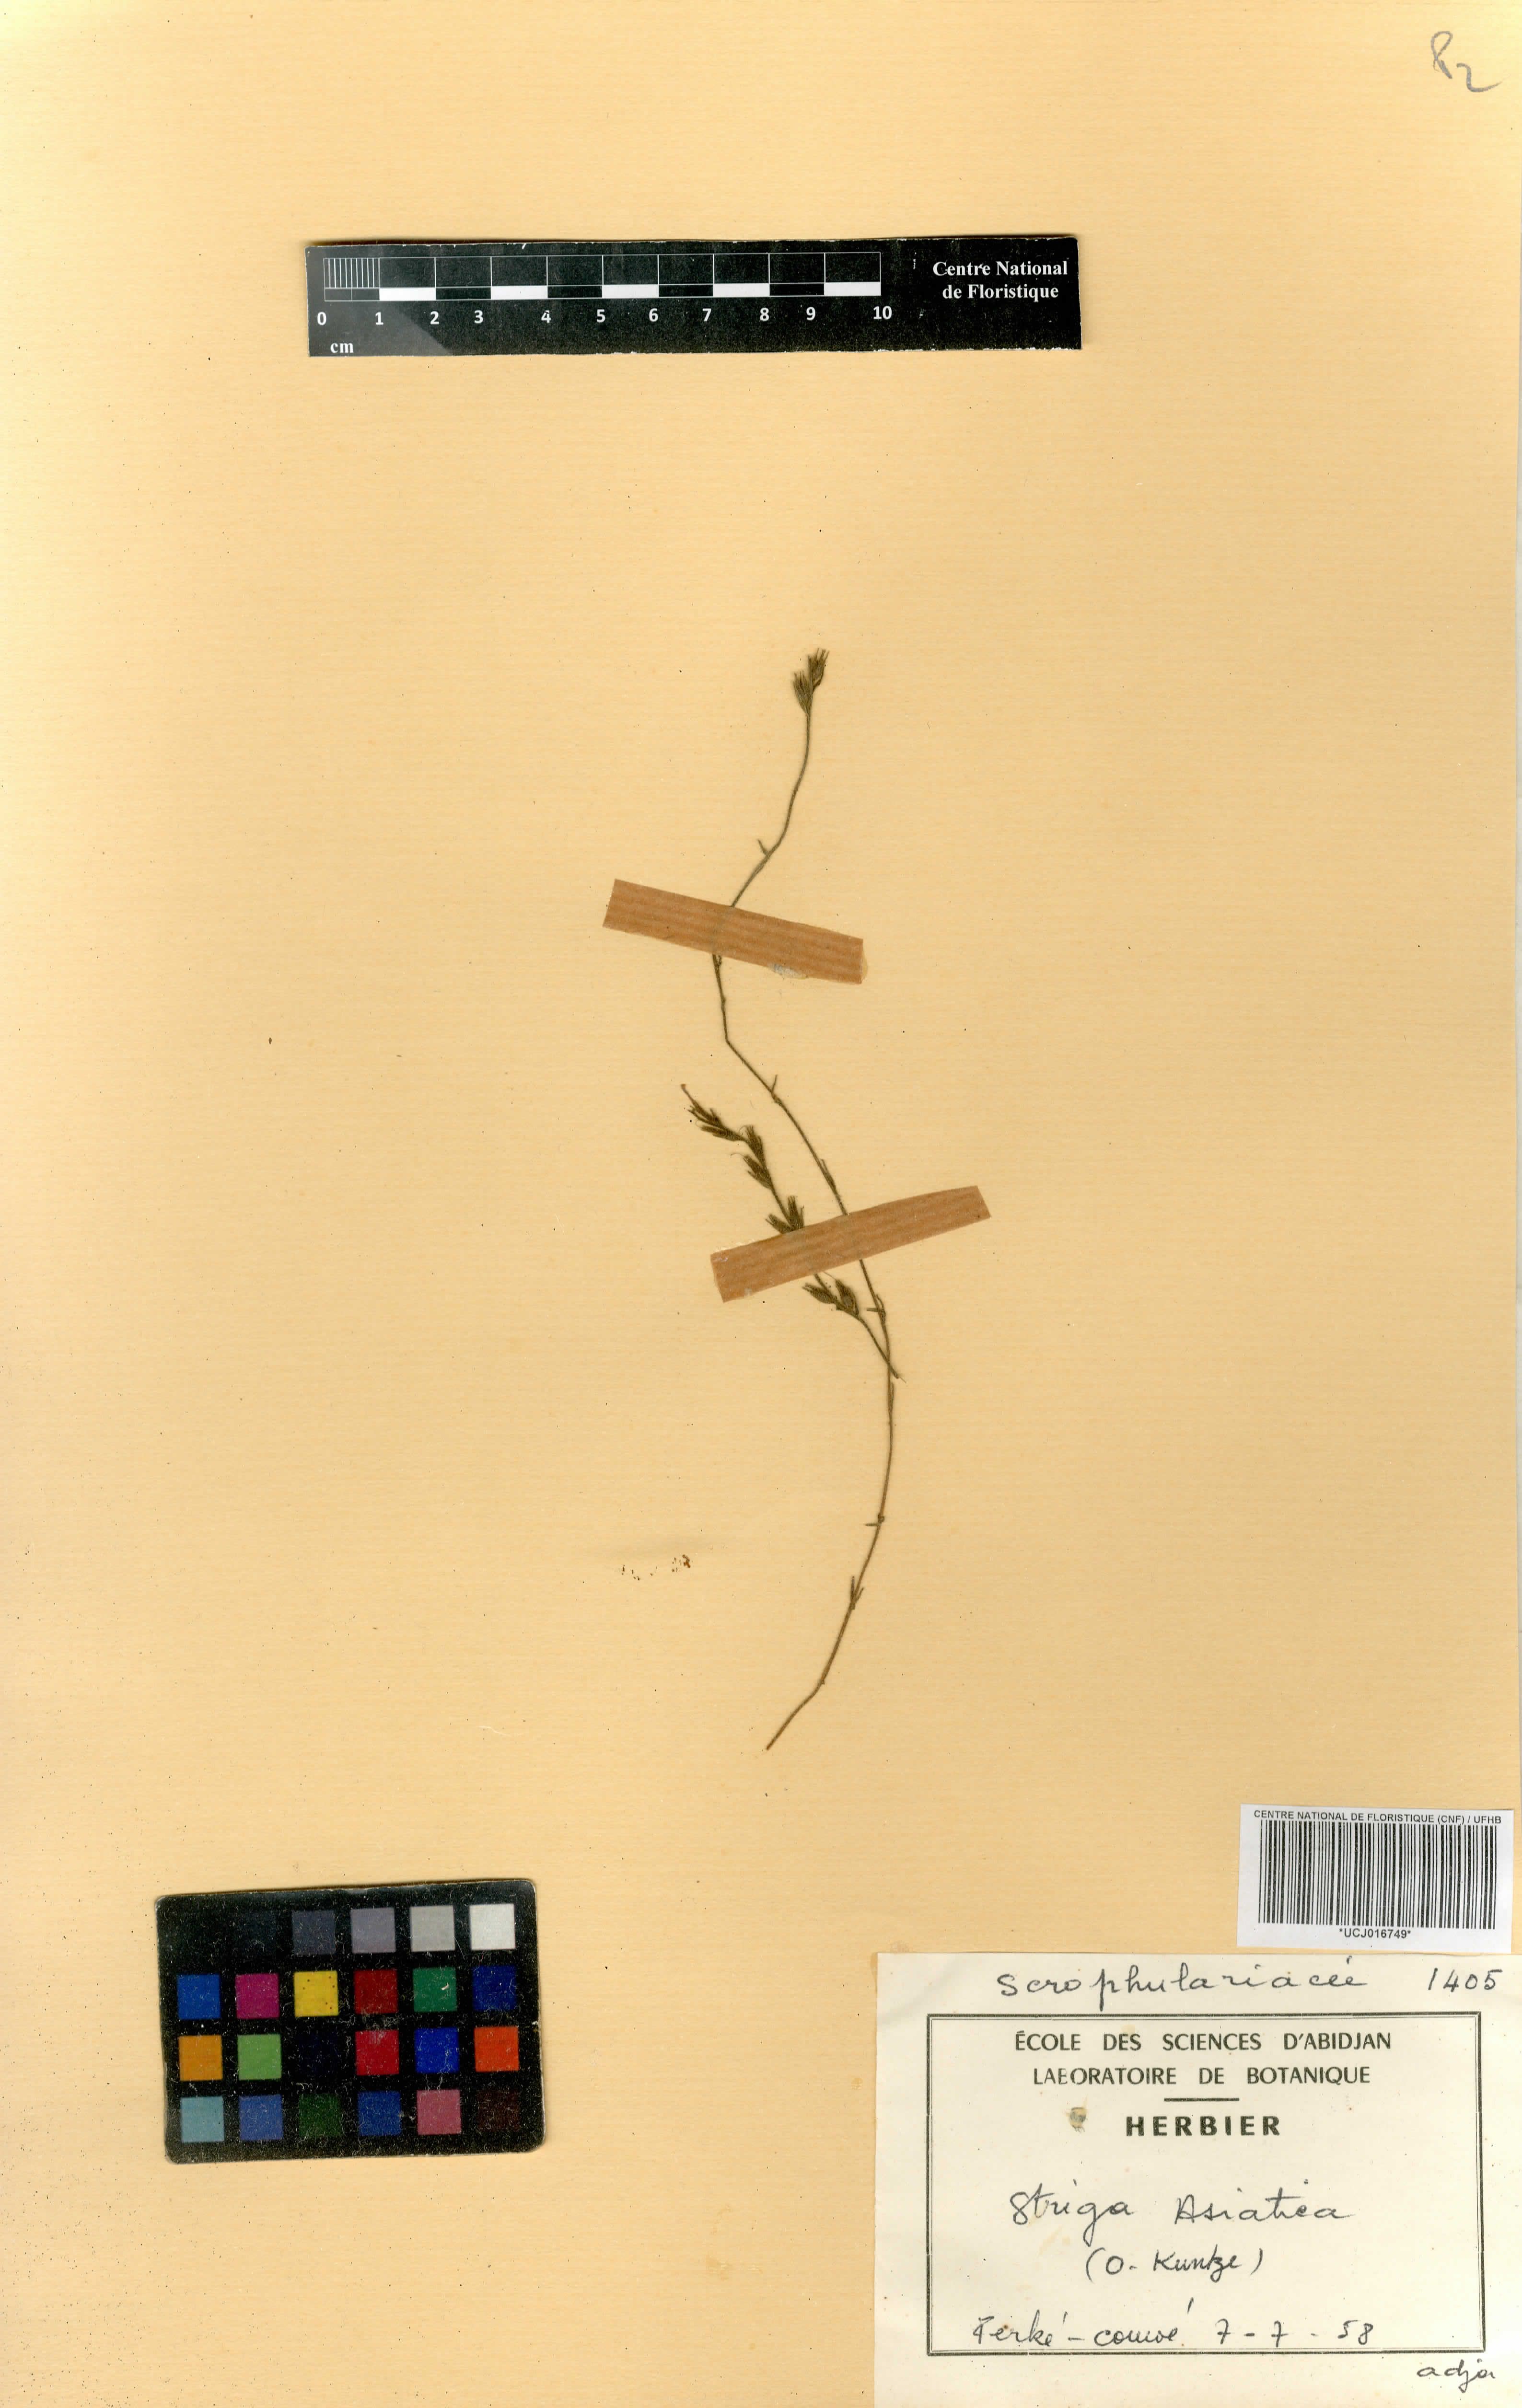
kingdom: Plantae
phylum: Tracheophyta
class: Magnoliopsida
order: Lamiales
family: Orobanchaceae
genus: Striga
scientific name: Striga asiatica
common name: Asiatic witchweed
